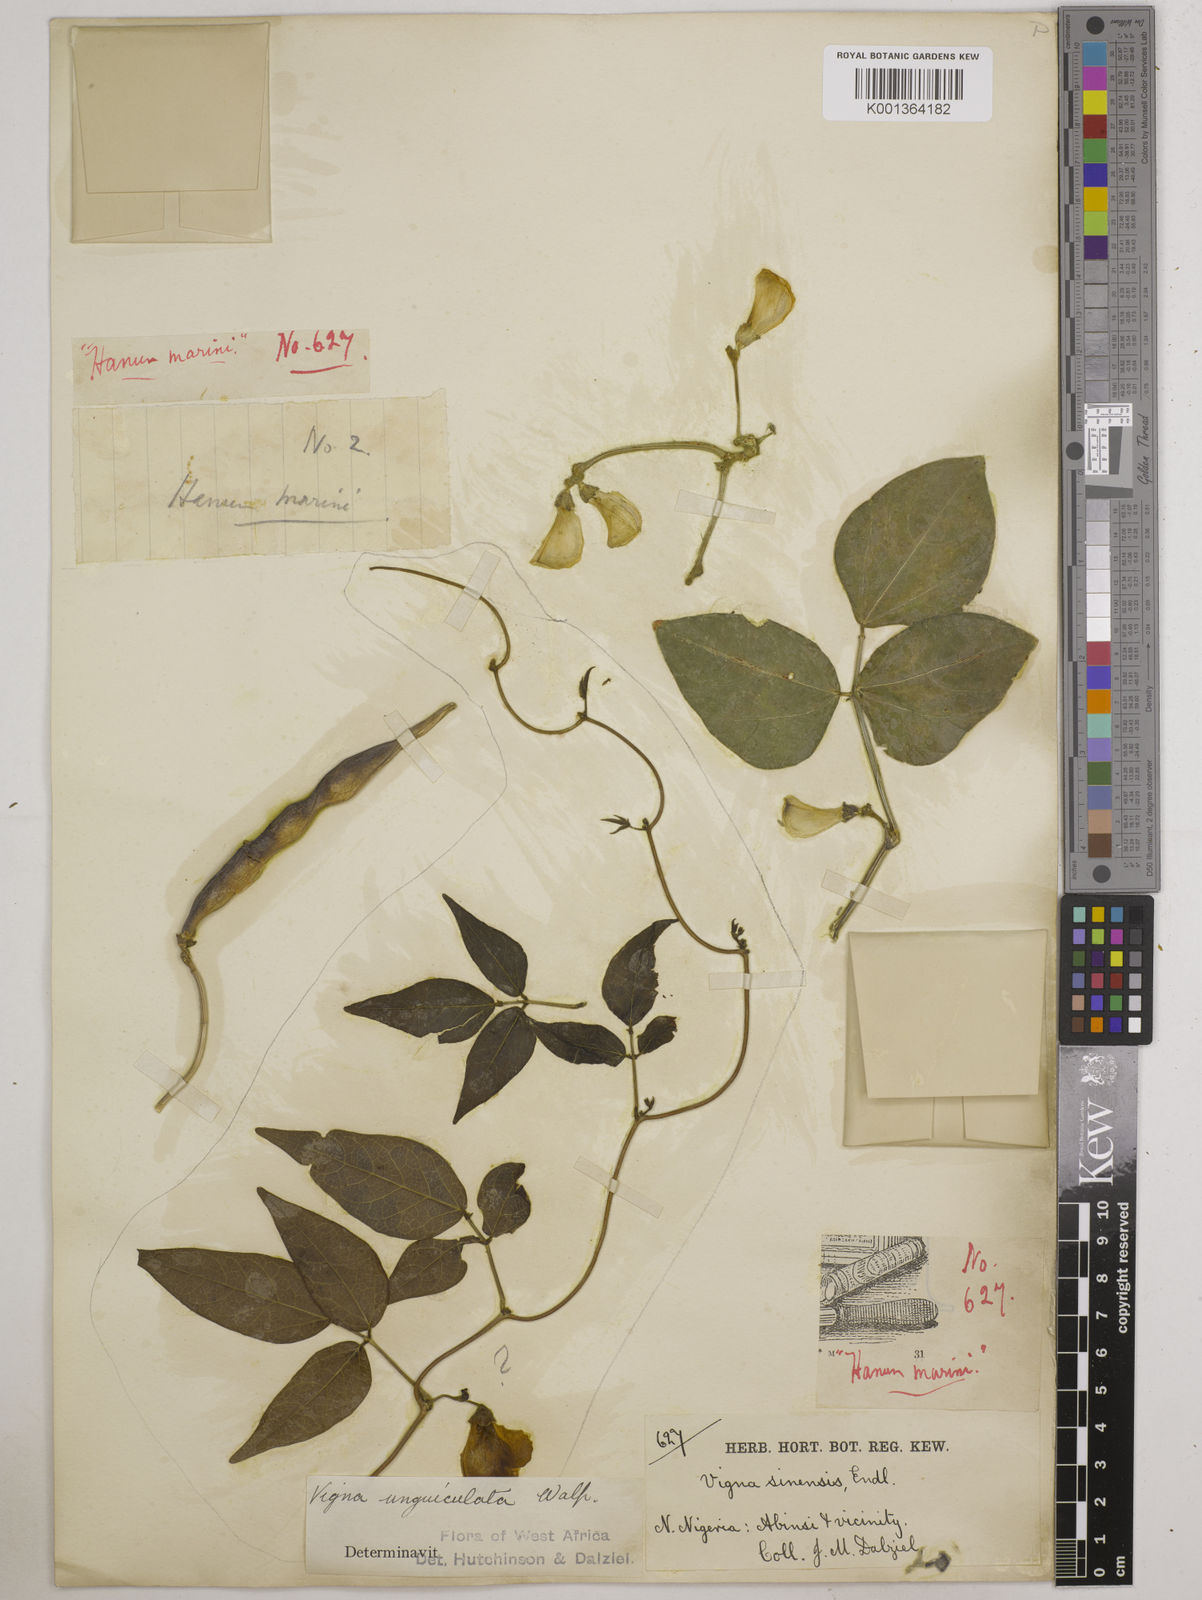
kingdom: Plantae
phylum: Tracheophyta
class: Magnoliopsida
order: Fabales
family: Fabaceae
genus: Vigna
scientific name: Vigna
